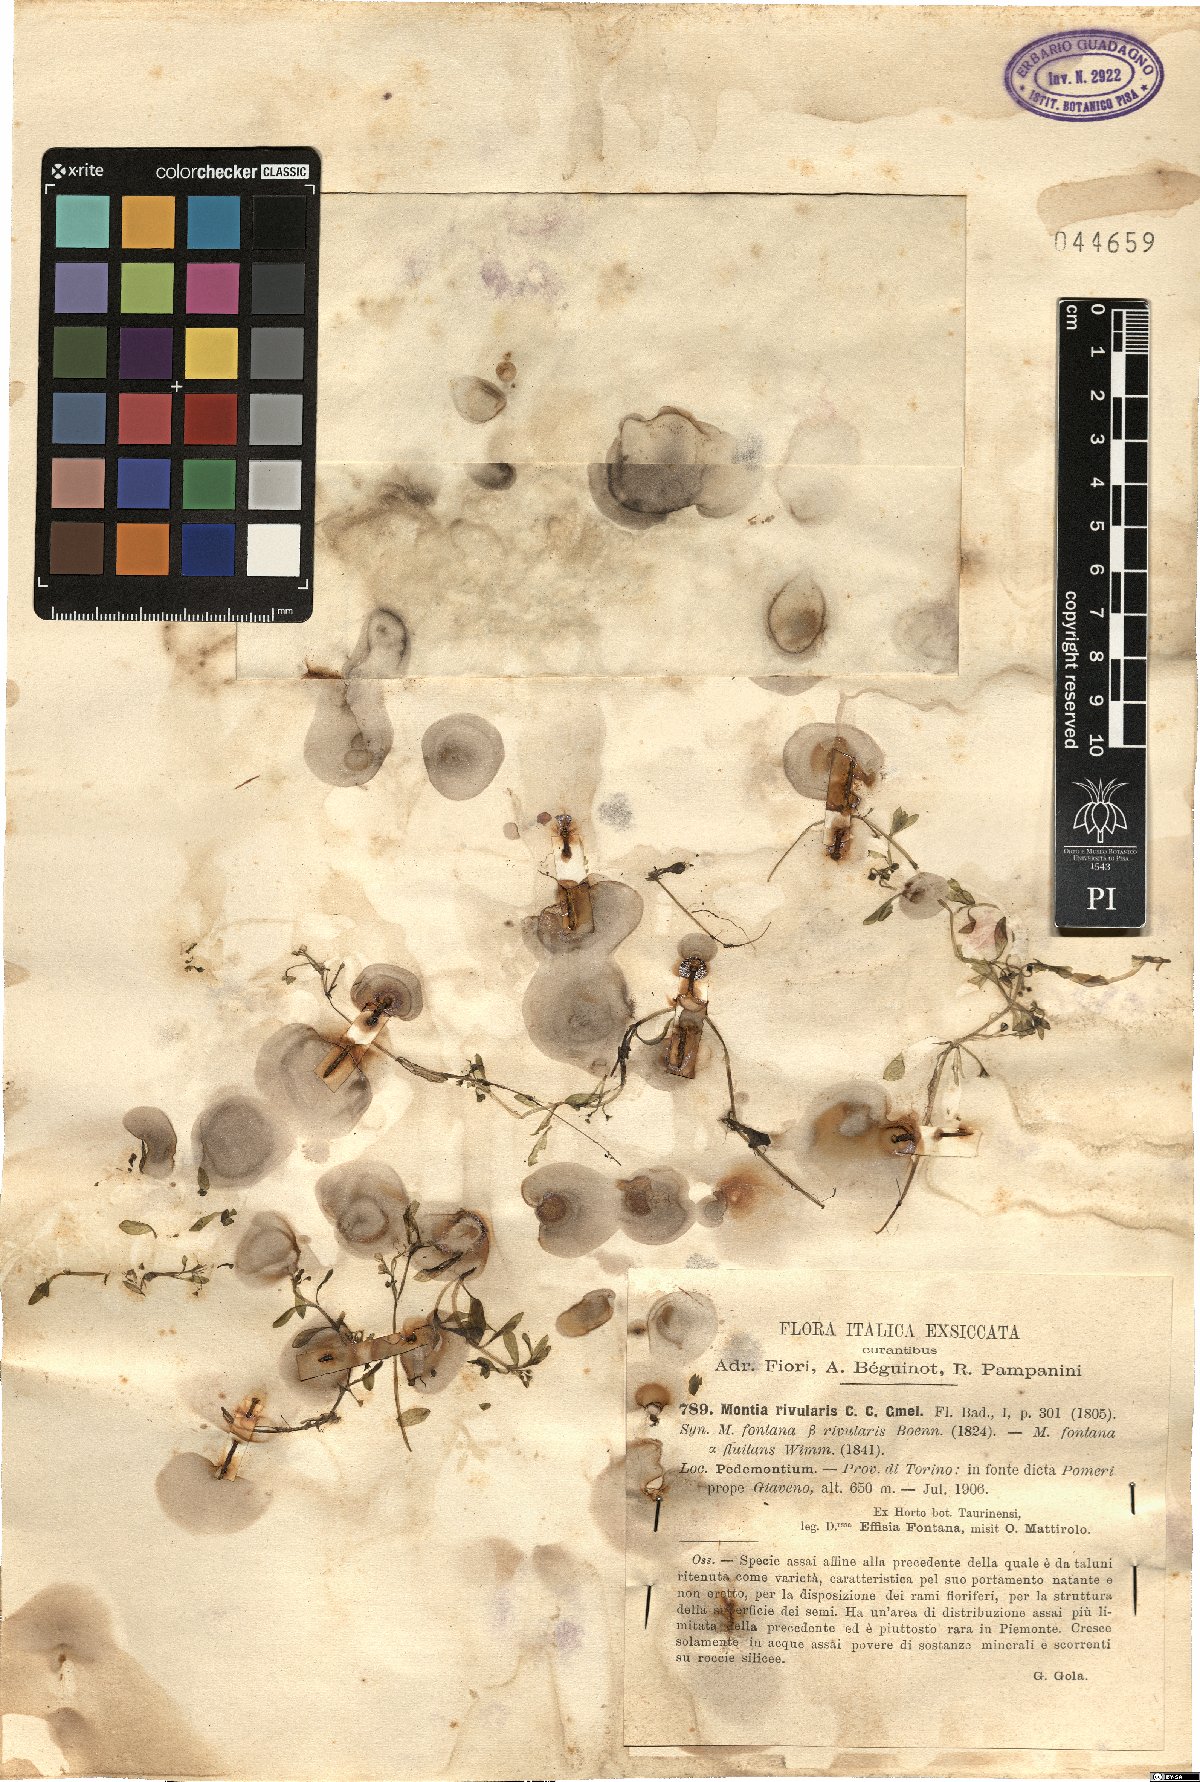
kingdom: Plantae
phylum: Tracheophyta
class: Magnoliopsida
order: Caryophyllales
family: Montiaceae
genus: Montia
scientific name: Montia fontana
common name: Blinks
